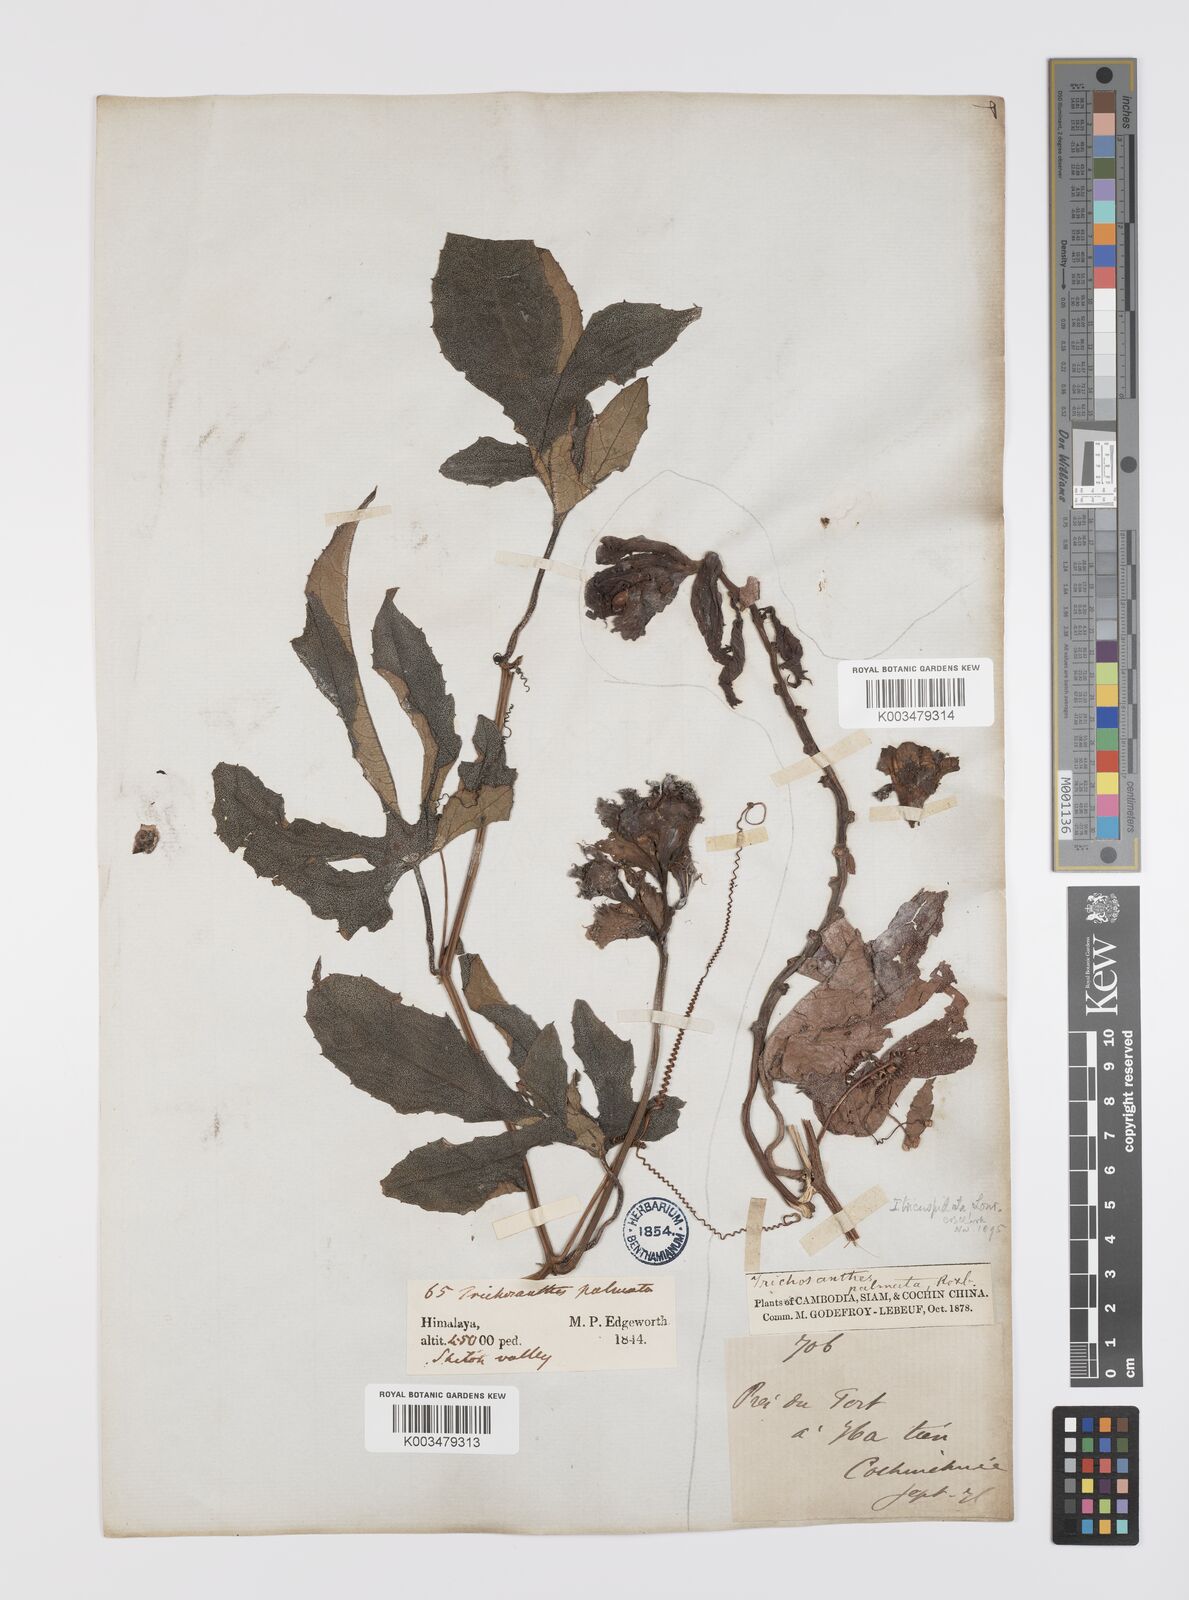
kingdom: Plantae
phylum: Tracheophyta
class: Magnoliopsida
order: Cucurbitales
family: Cucurbitaceae
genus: Trichosanthes
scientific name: Trichosanthes rubriflos
